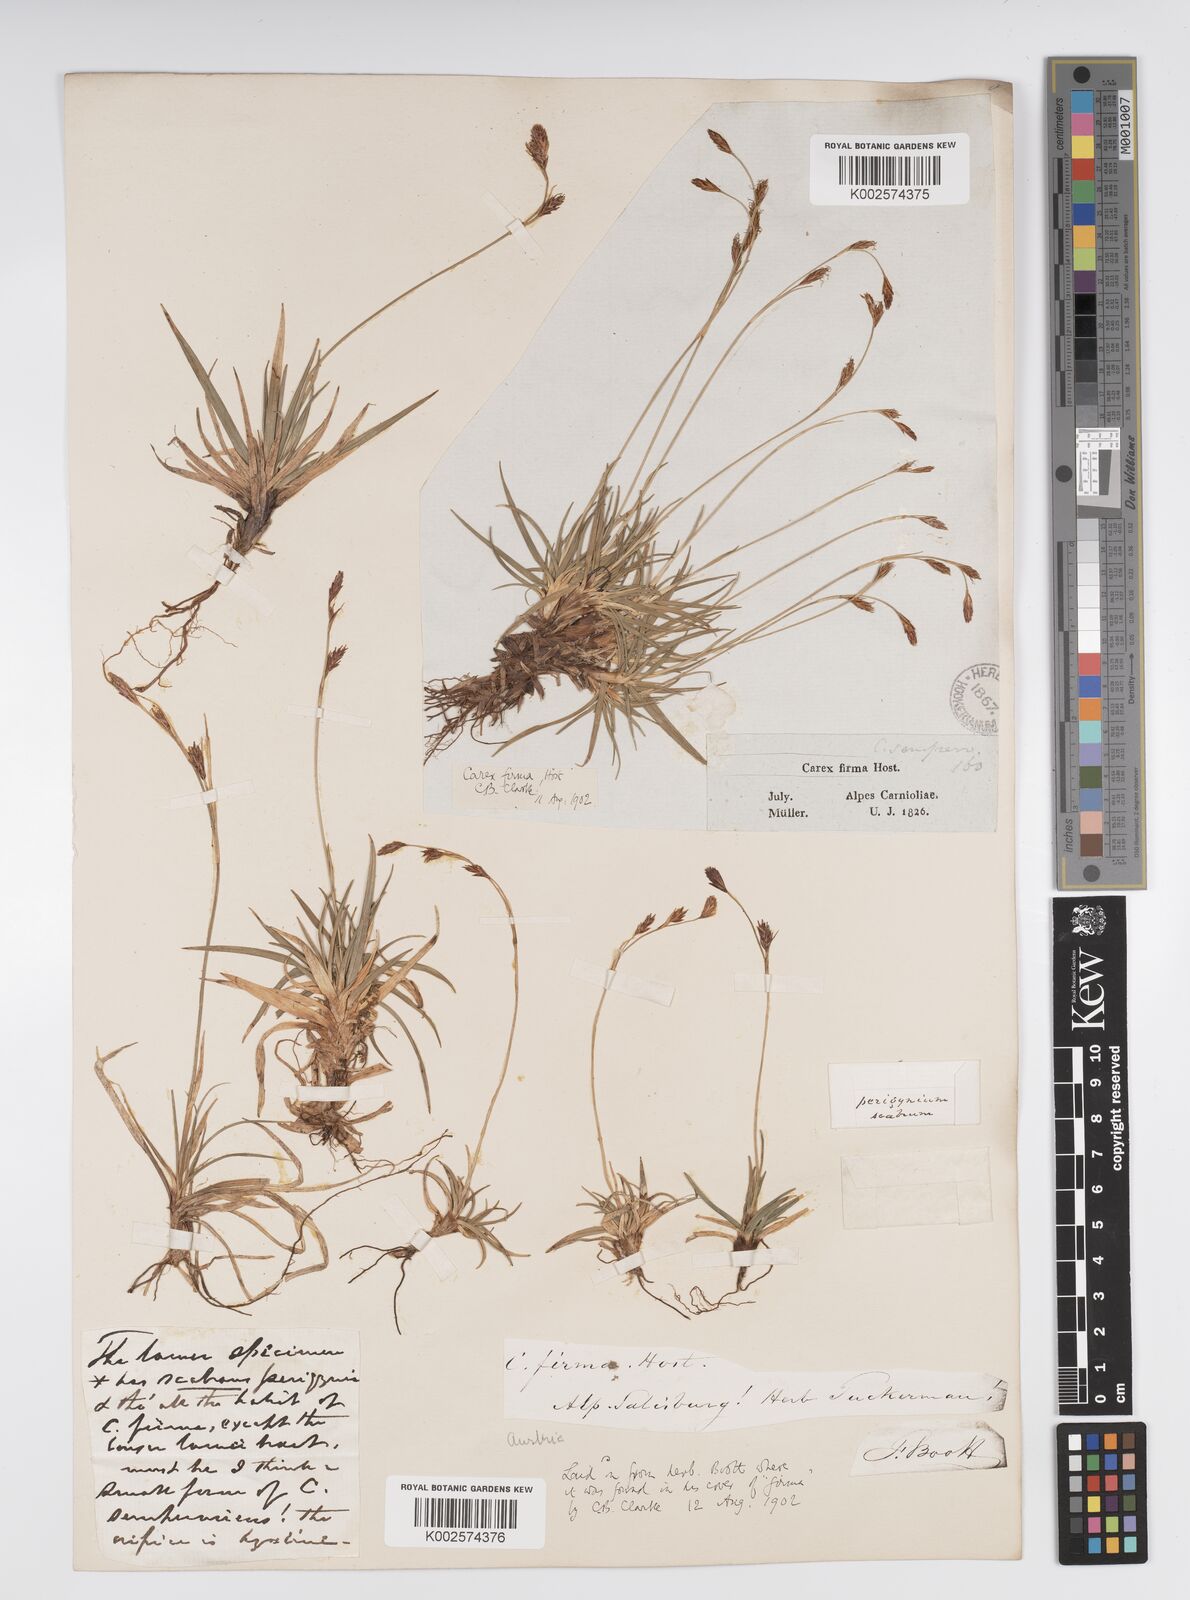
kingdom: Plantae
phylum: Tracheophyta
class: Liliopsida
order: Poales
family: Cyperaceae
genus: Carex
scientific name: Carex firma
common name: Dwarf pillow sedge
